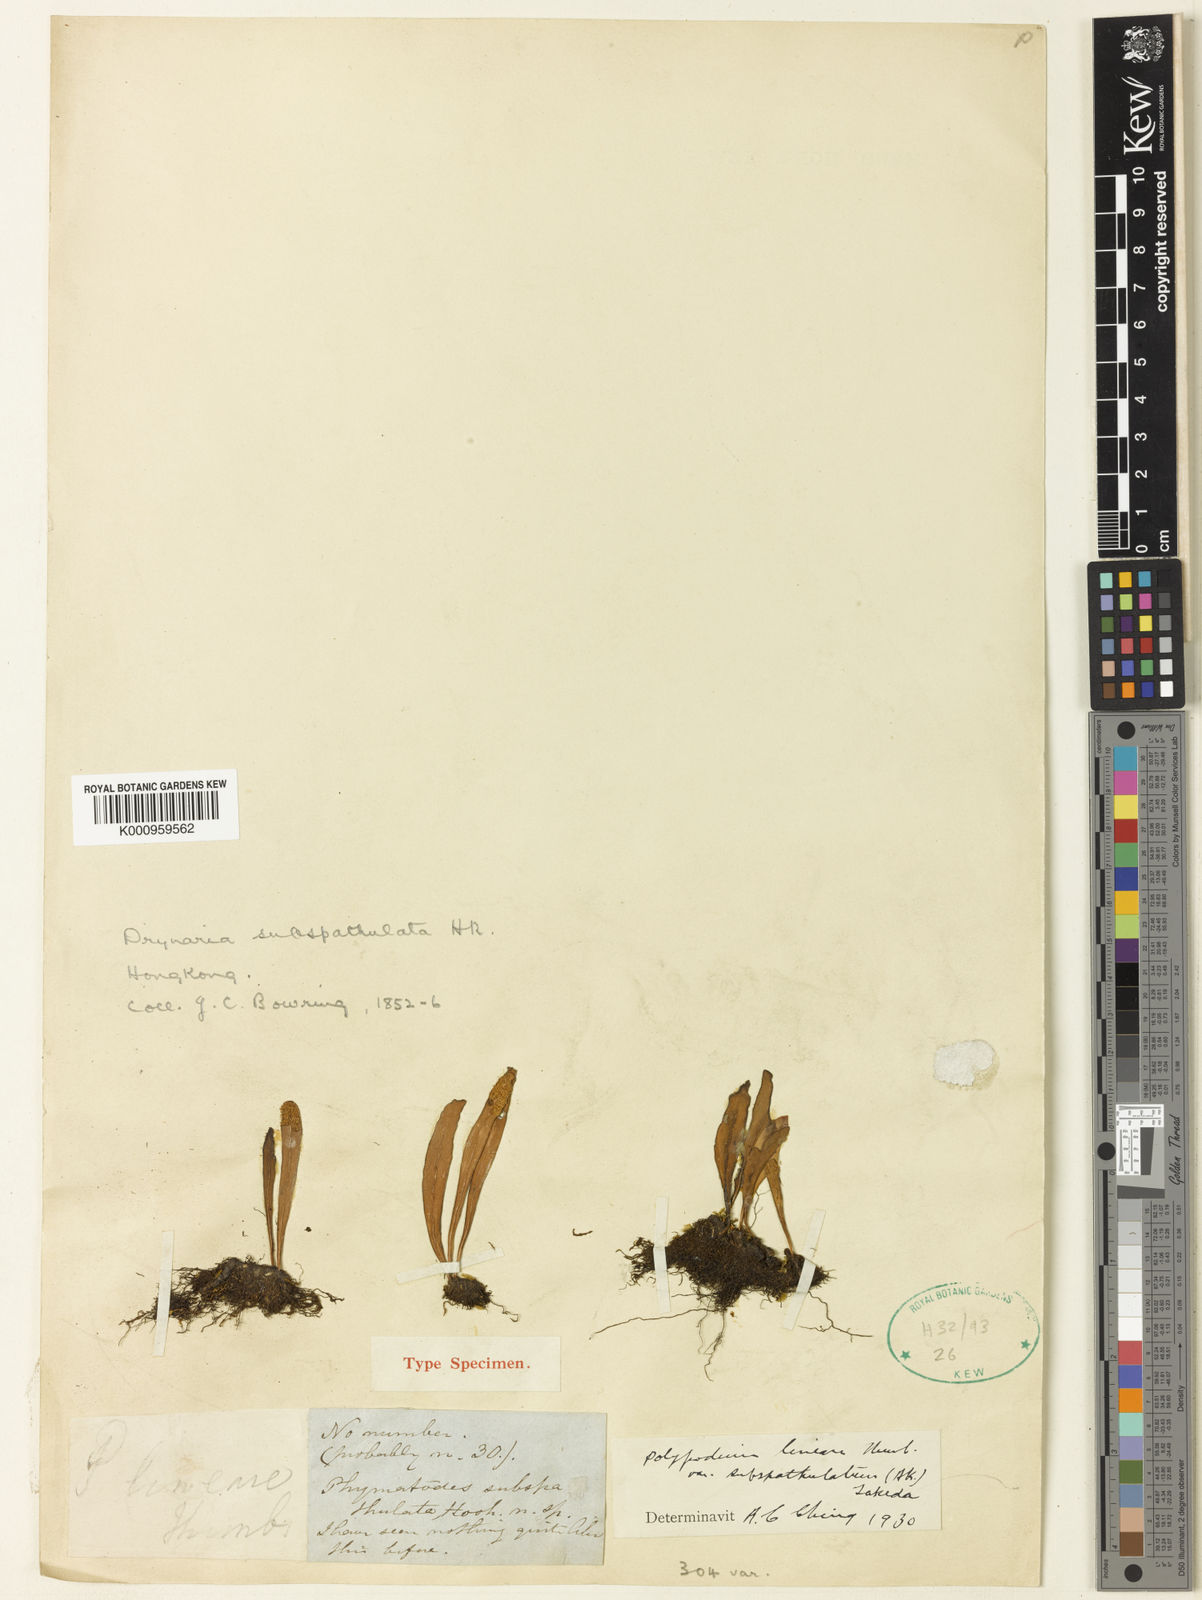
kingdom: Plantae
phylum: Tracheophyta
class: Polypodiopsida
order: Polypodiales
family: Polypodiaceae
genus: Lepisorus
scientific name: Lepisorus thunbergianus
